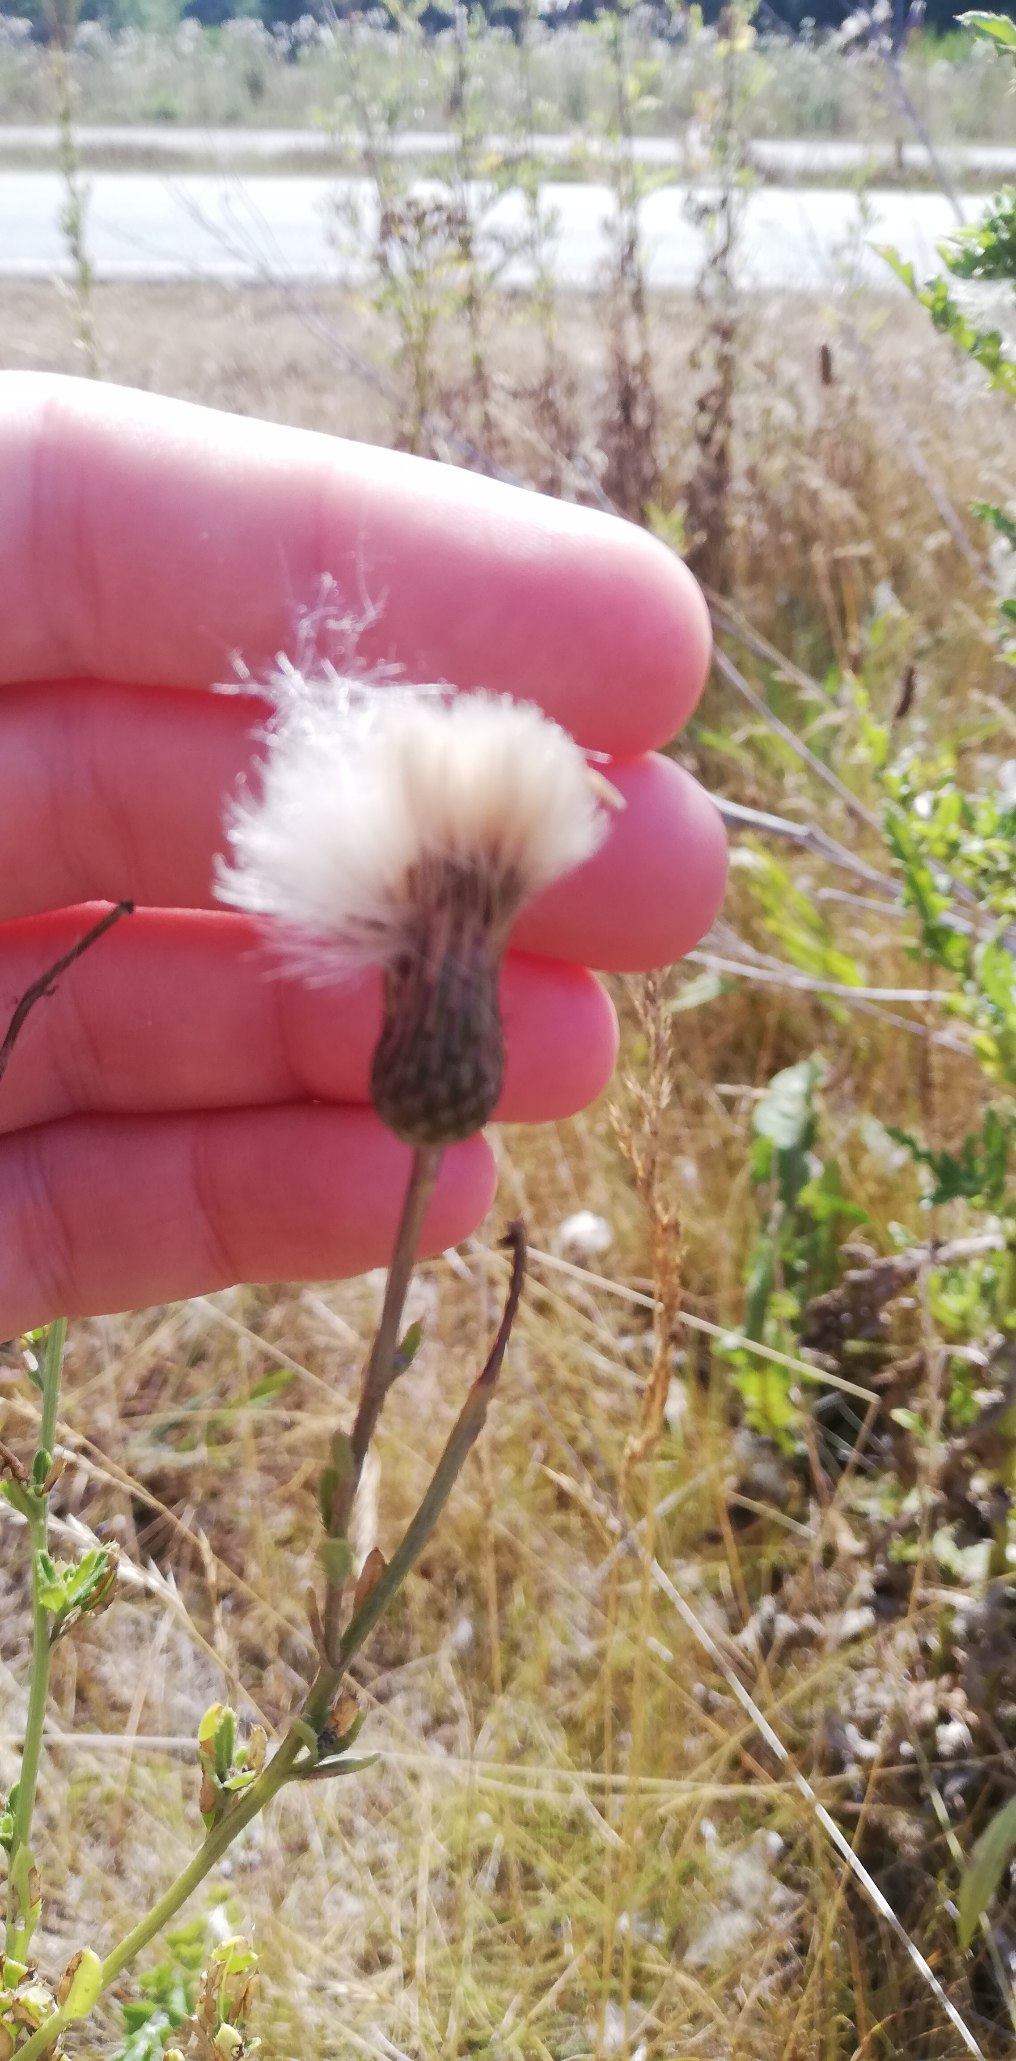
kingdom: Plantae
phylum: Tracheophyta
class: Magnoliopsida
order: Asterales
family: Asteraceae
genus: Cirsium
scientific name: Cirsium arvense
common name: Ager-tidsel
